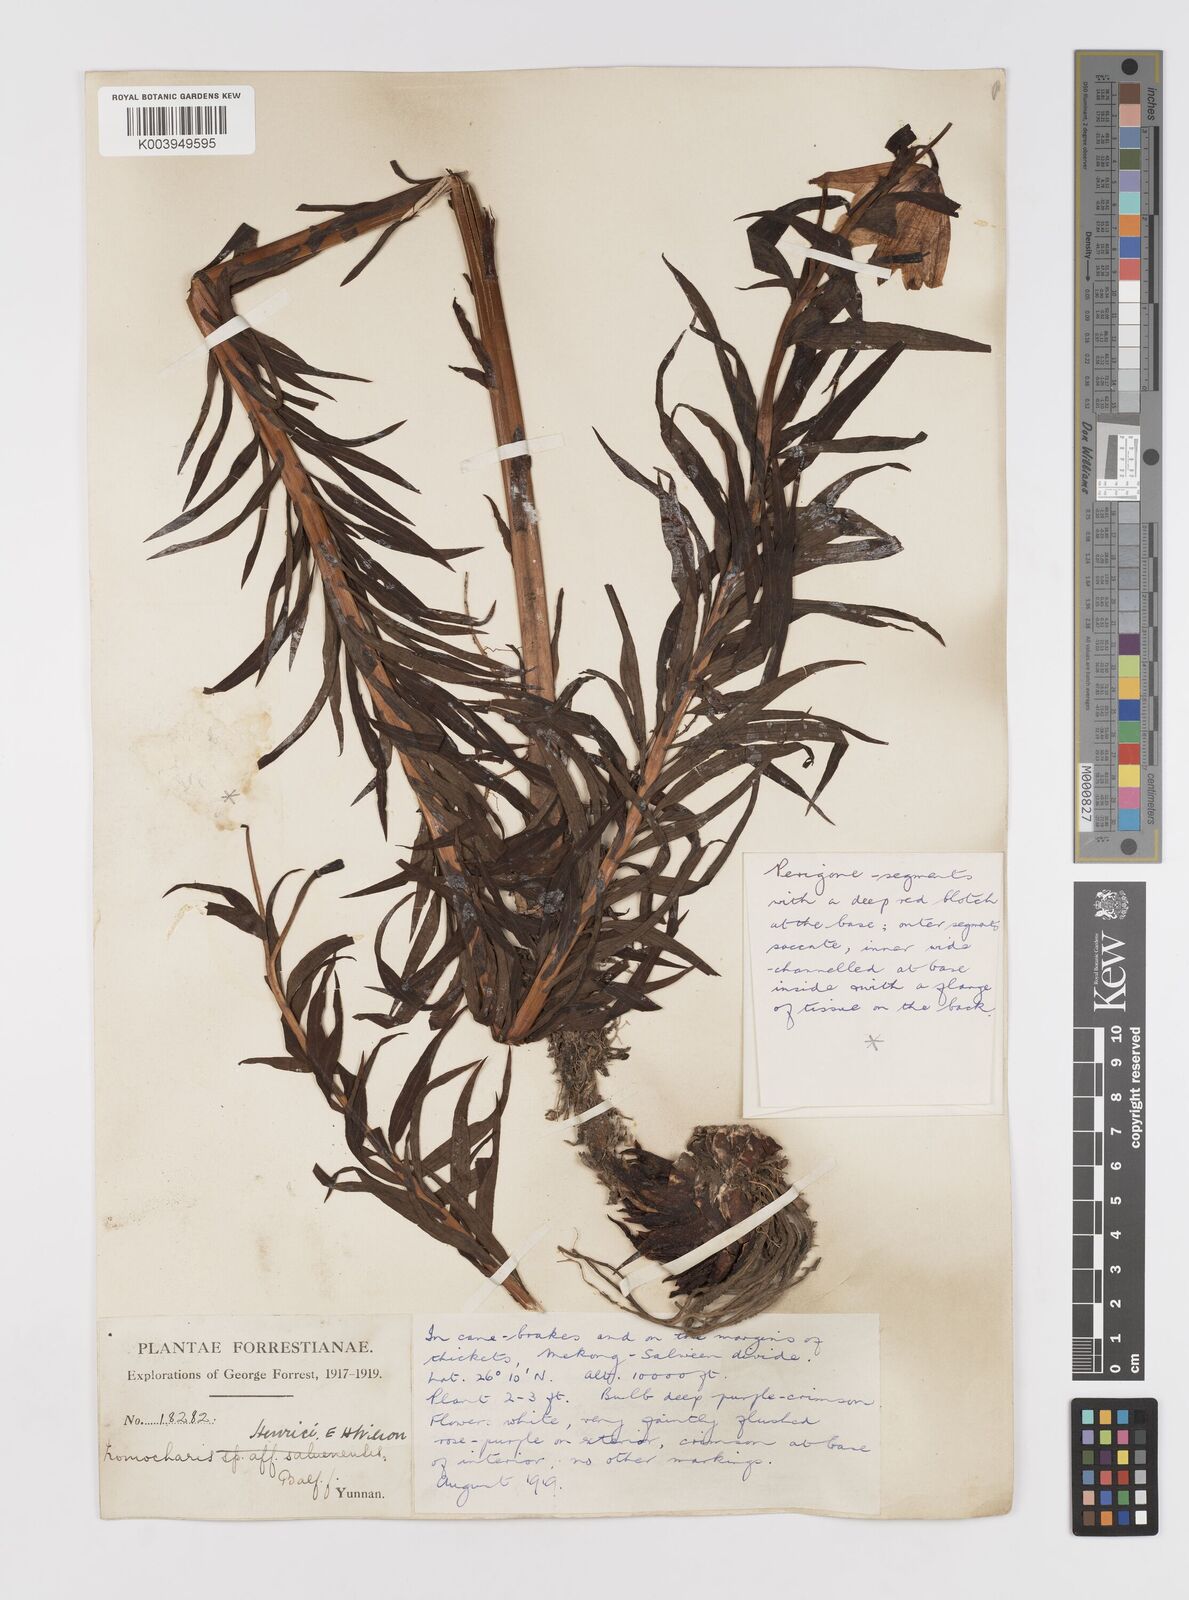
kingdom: Plantae
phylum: Tracheophyta
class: Liliopsida
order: Liliales
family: Liliaceae
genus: Lilium
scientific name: Lilium henrici
